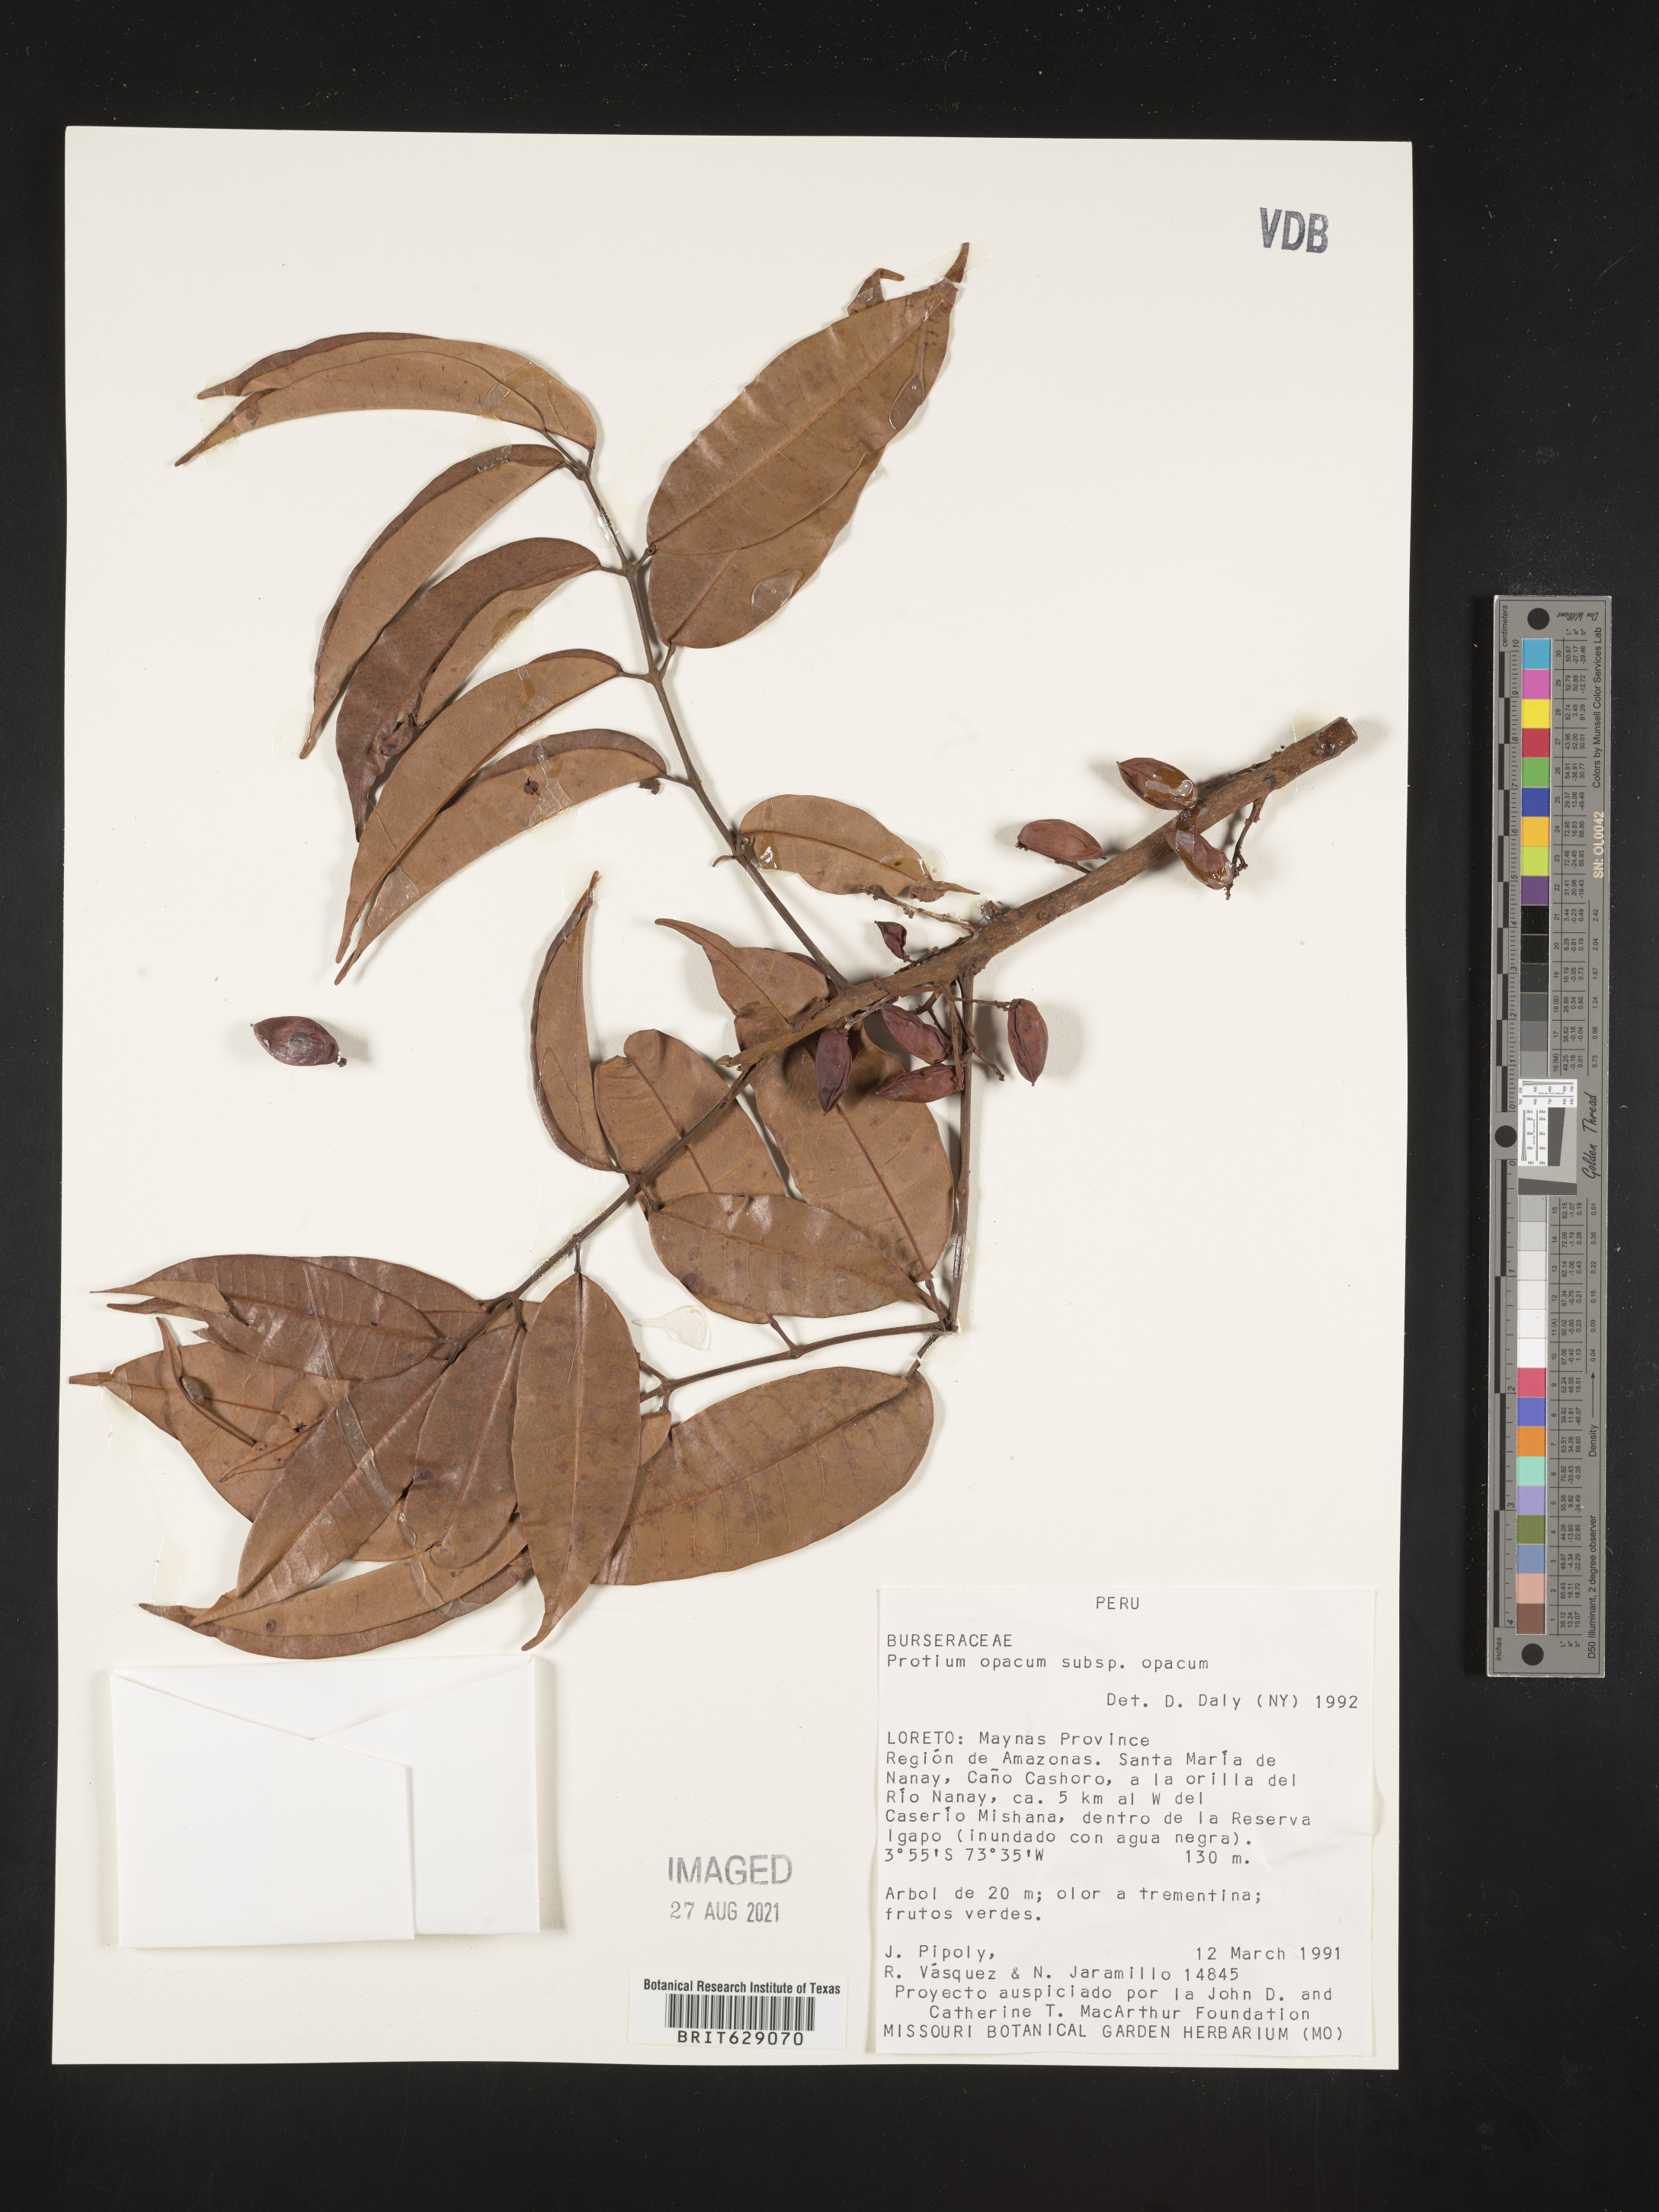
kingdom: Plantae
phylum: Tracheophyta
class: Magnoliopsida
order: Sapindales
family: Burseraceae
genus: Protium
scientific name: Protium opacum
